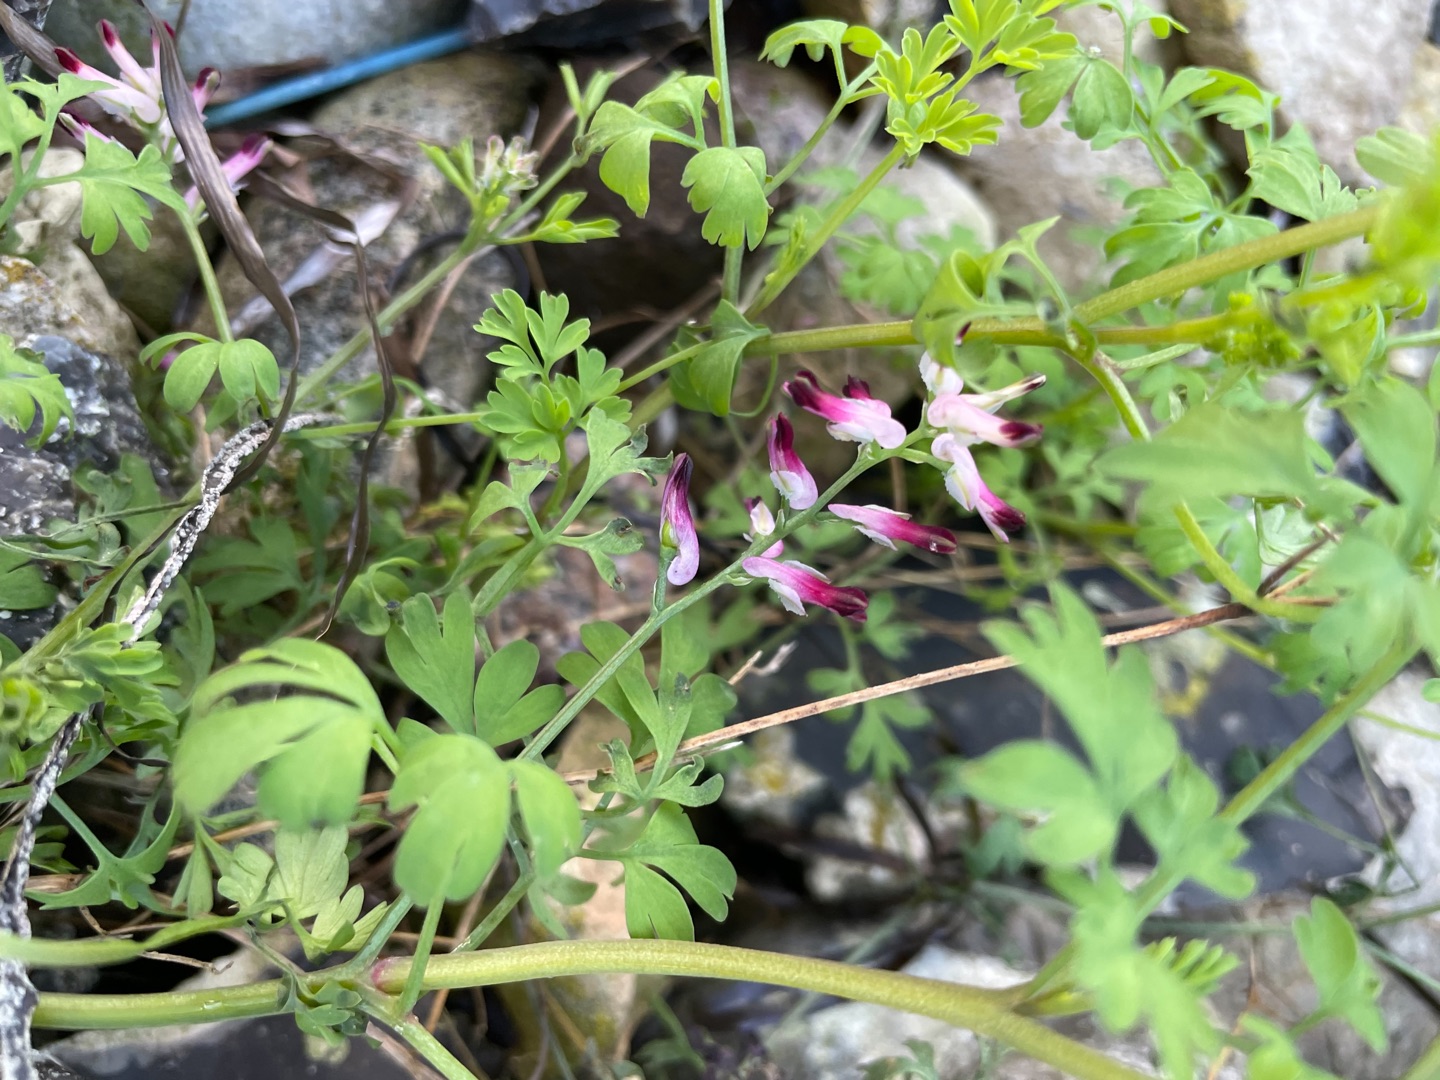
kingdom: Plantae
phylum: Tracheophyta
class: Magnoliopsida
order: Ranunculales
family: Papaveraceae
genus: Fumaria
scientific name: Fumaria officinalis
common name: Læge-jordrøg
